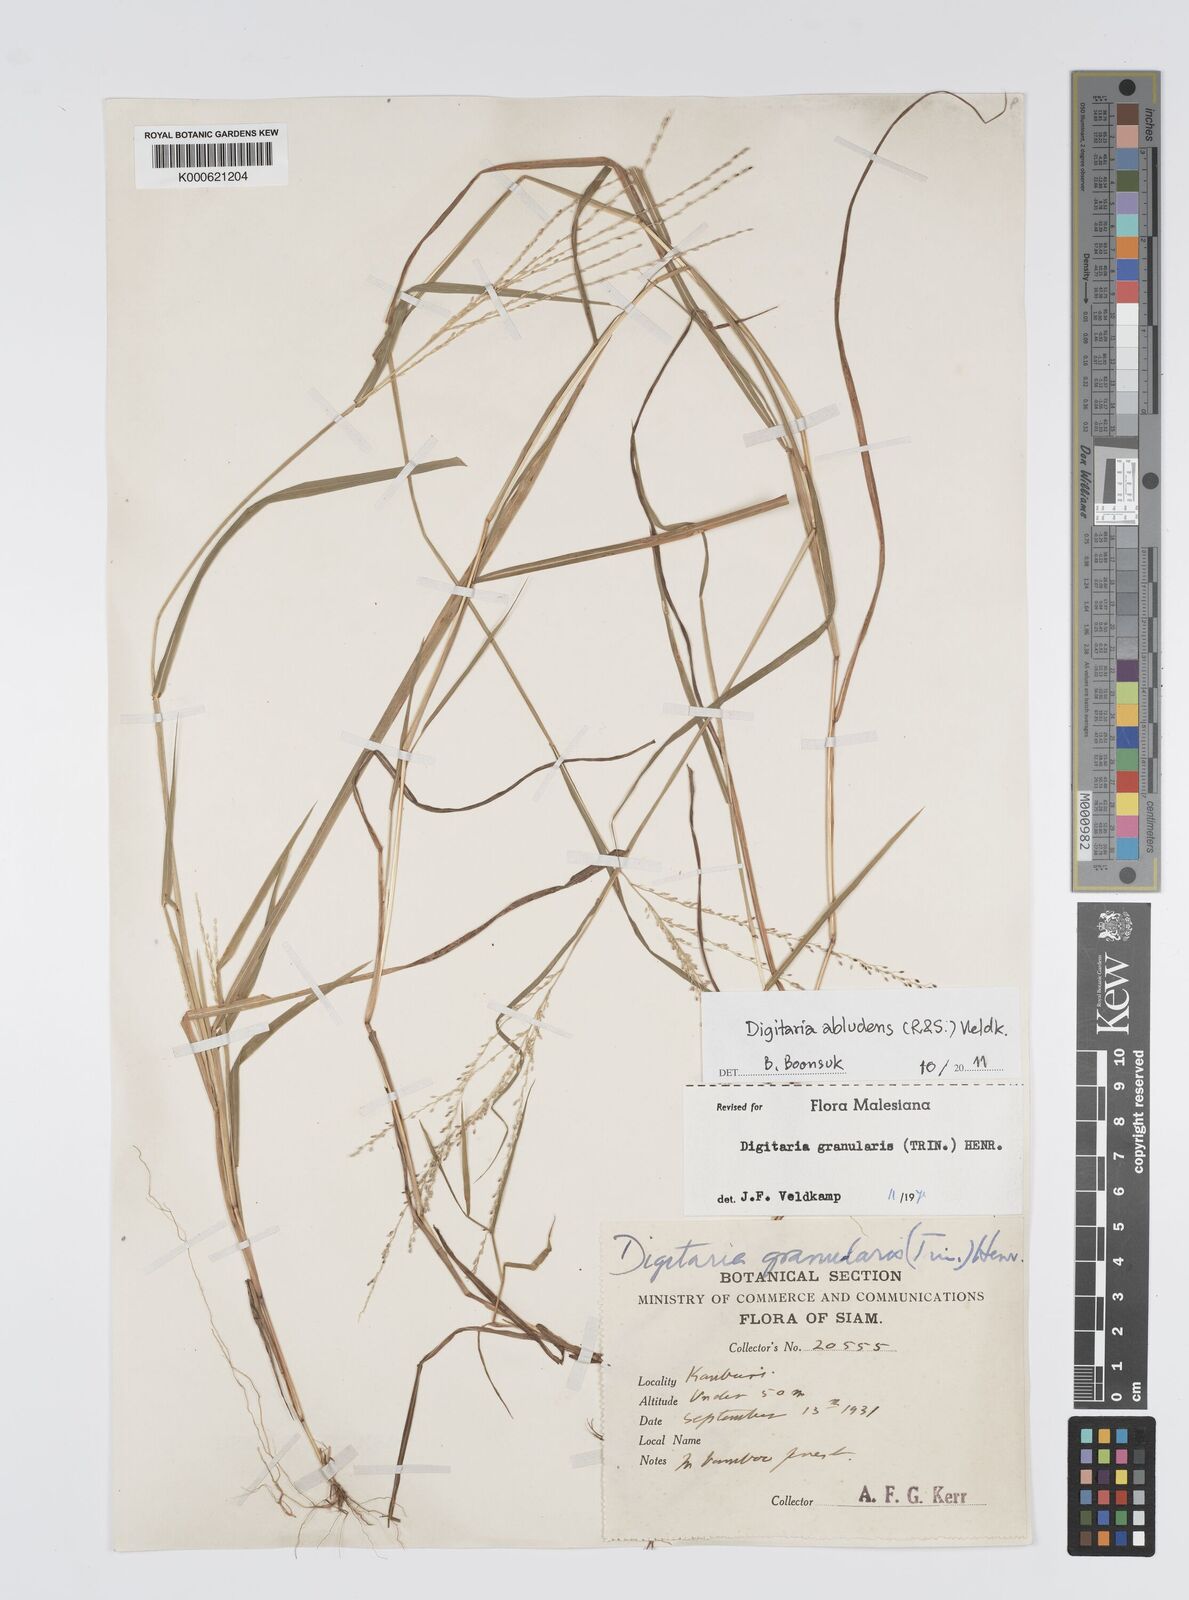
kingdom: Plantae
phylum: Tracheophyta
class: Liliopsida
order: Poales
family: Poaceae
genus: Digitaria
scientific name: Digitaria abludens
